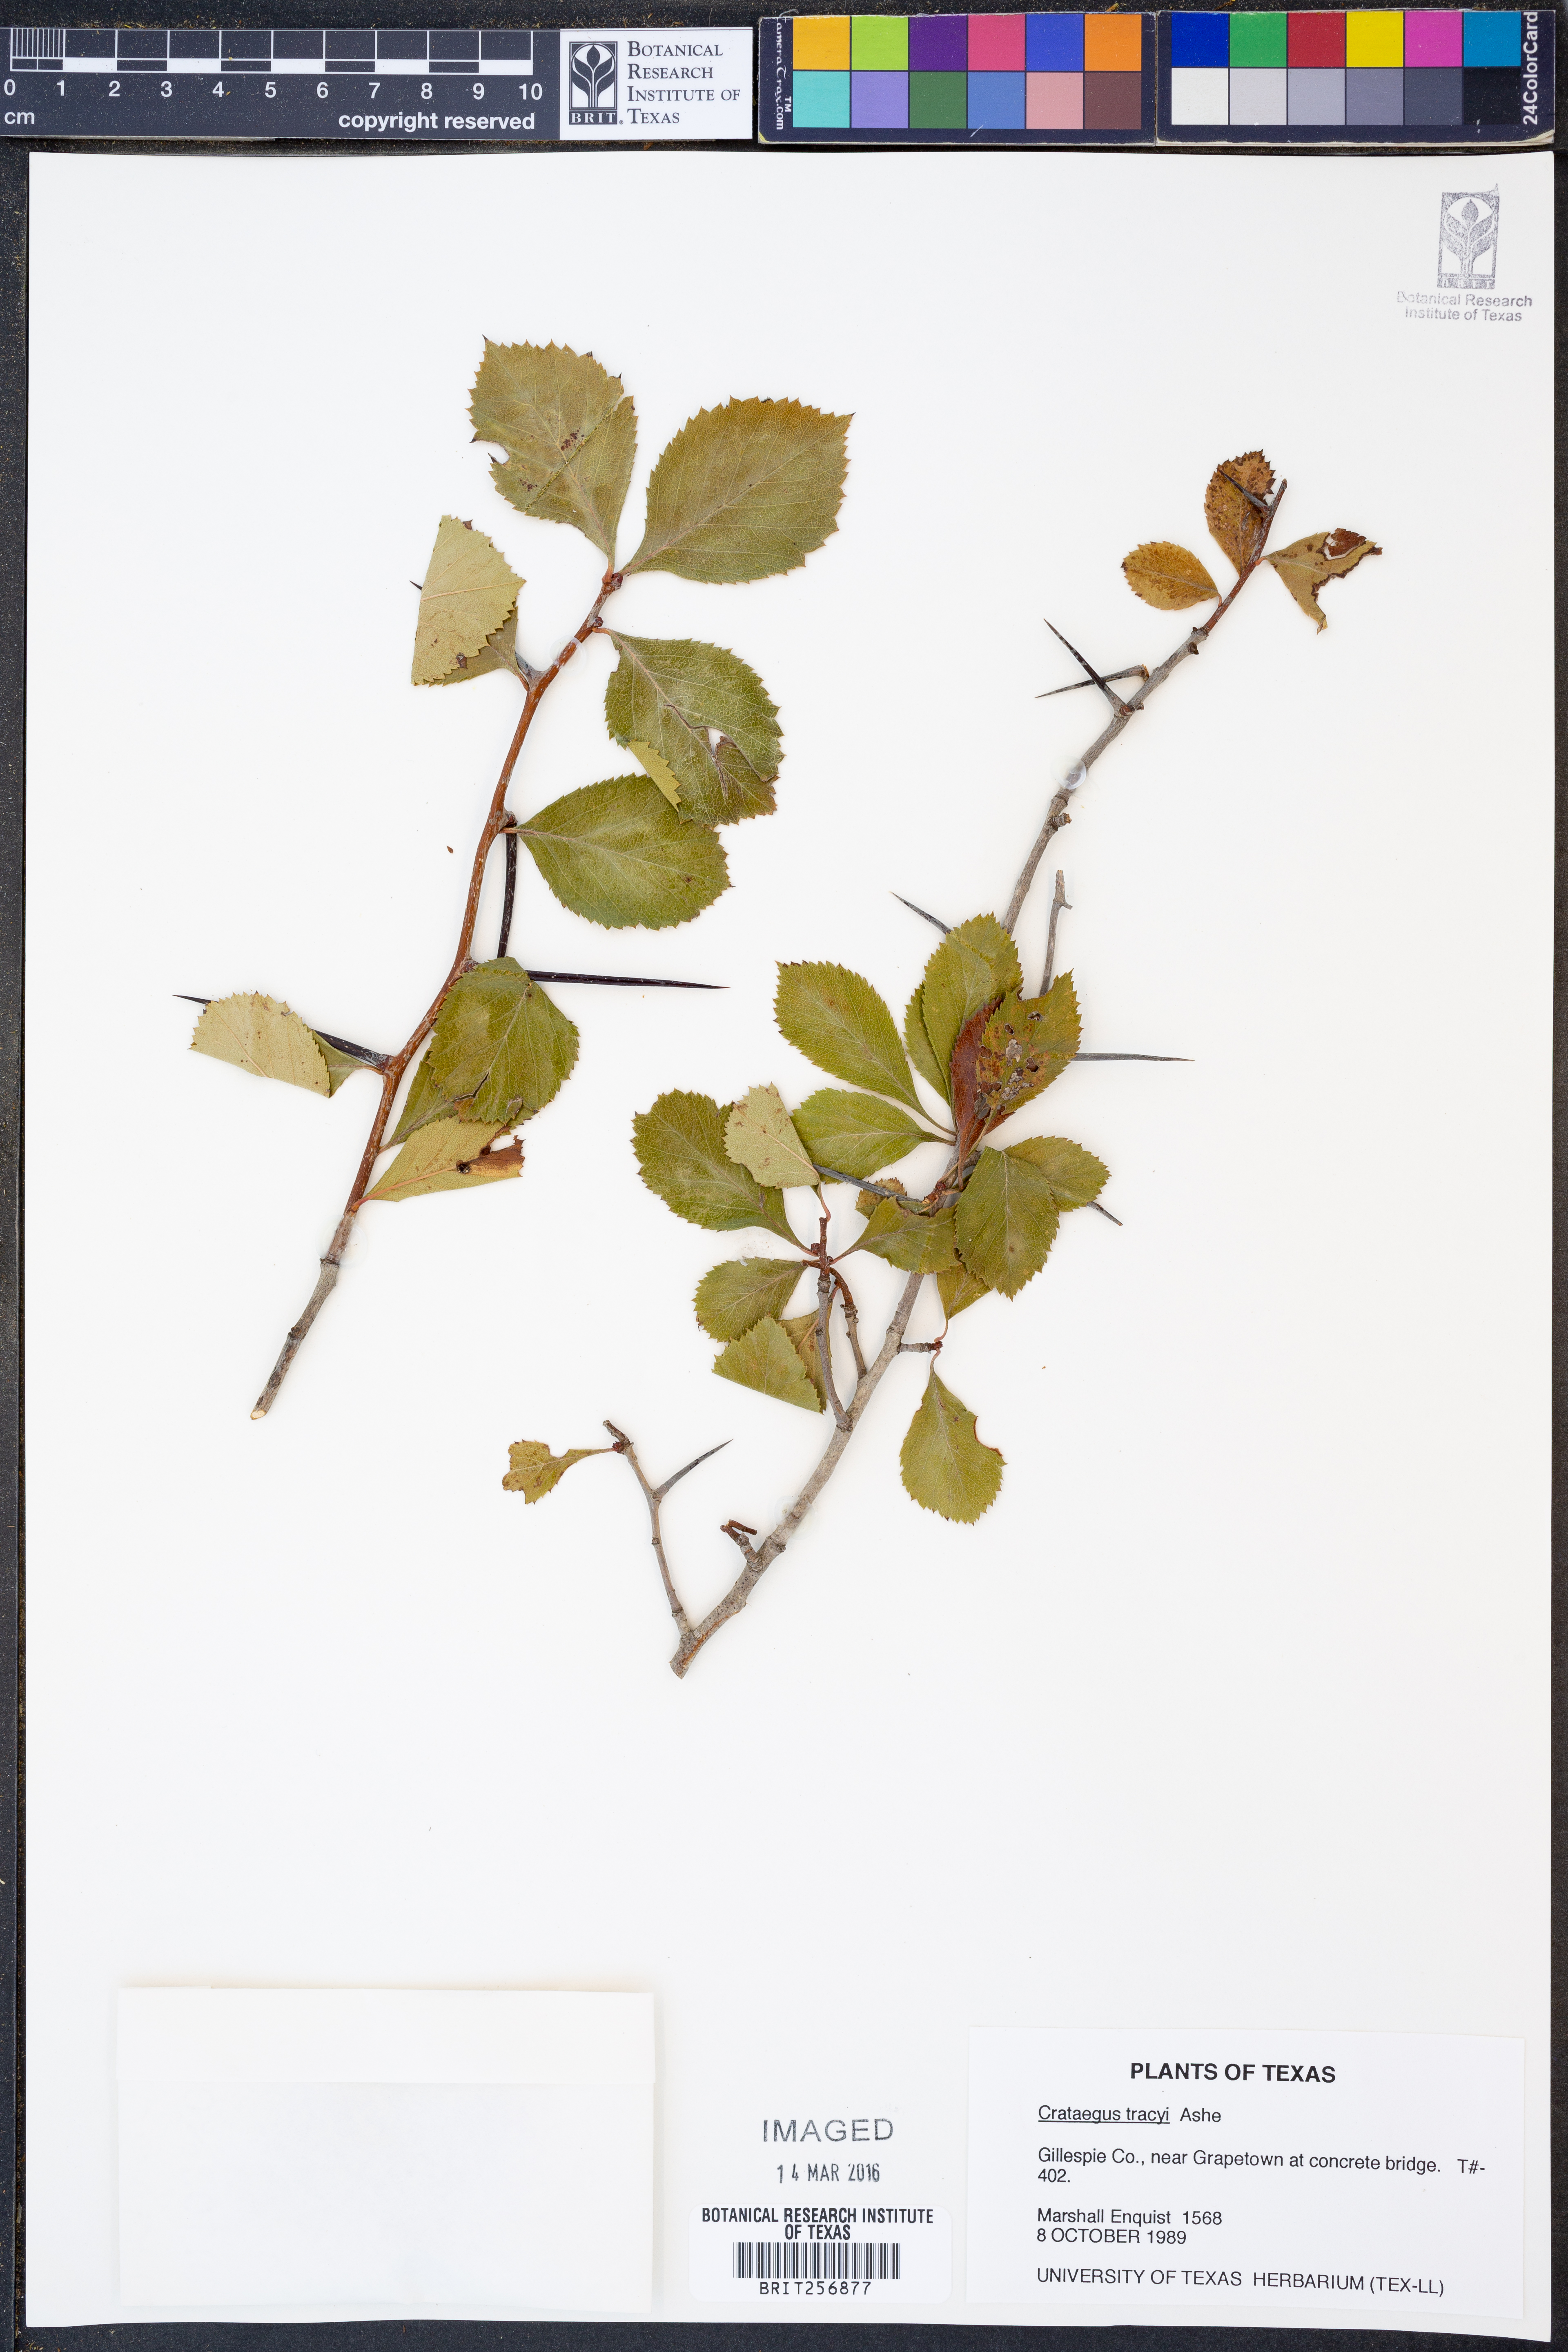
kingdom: Plantae
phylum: Tracheophyta
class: Magnoliopsida
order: Rosales
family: Rosaceae
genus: Crataegus
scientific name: Crataegus tracyi
